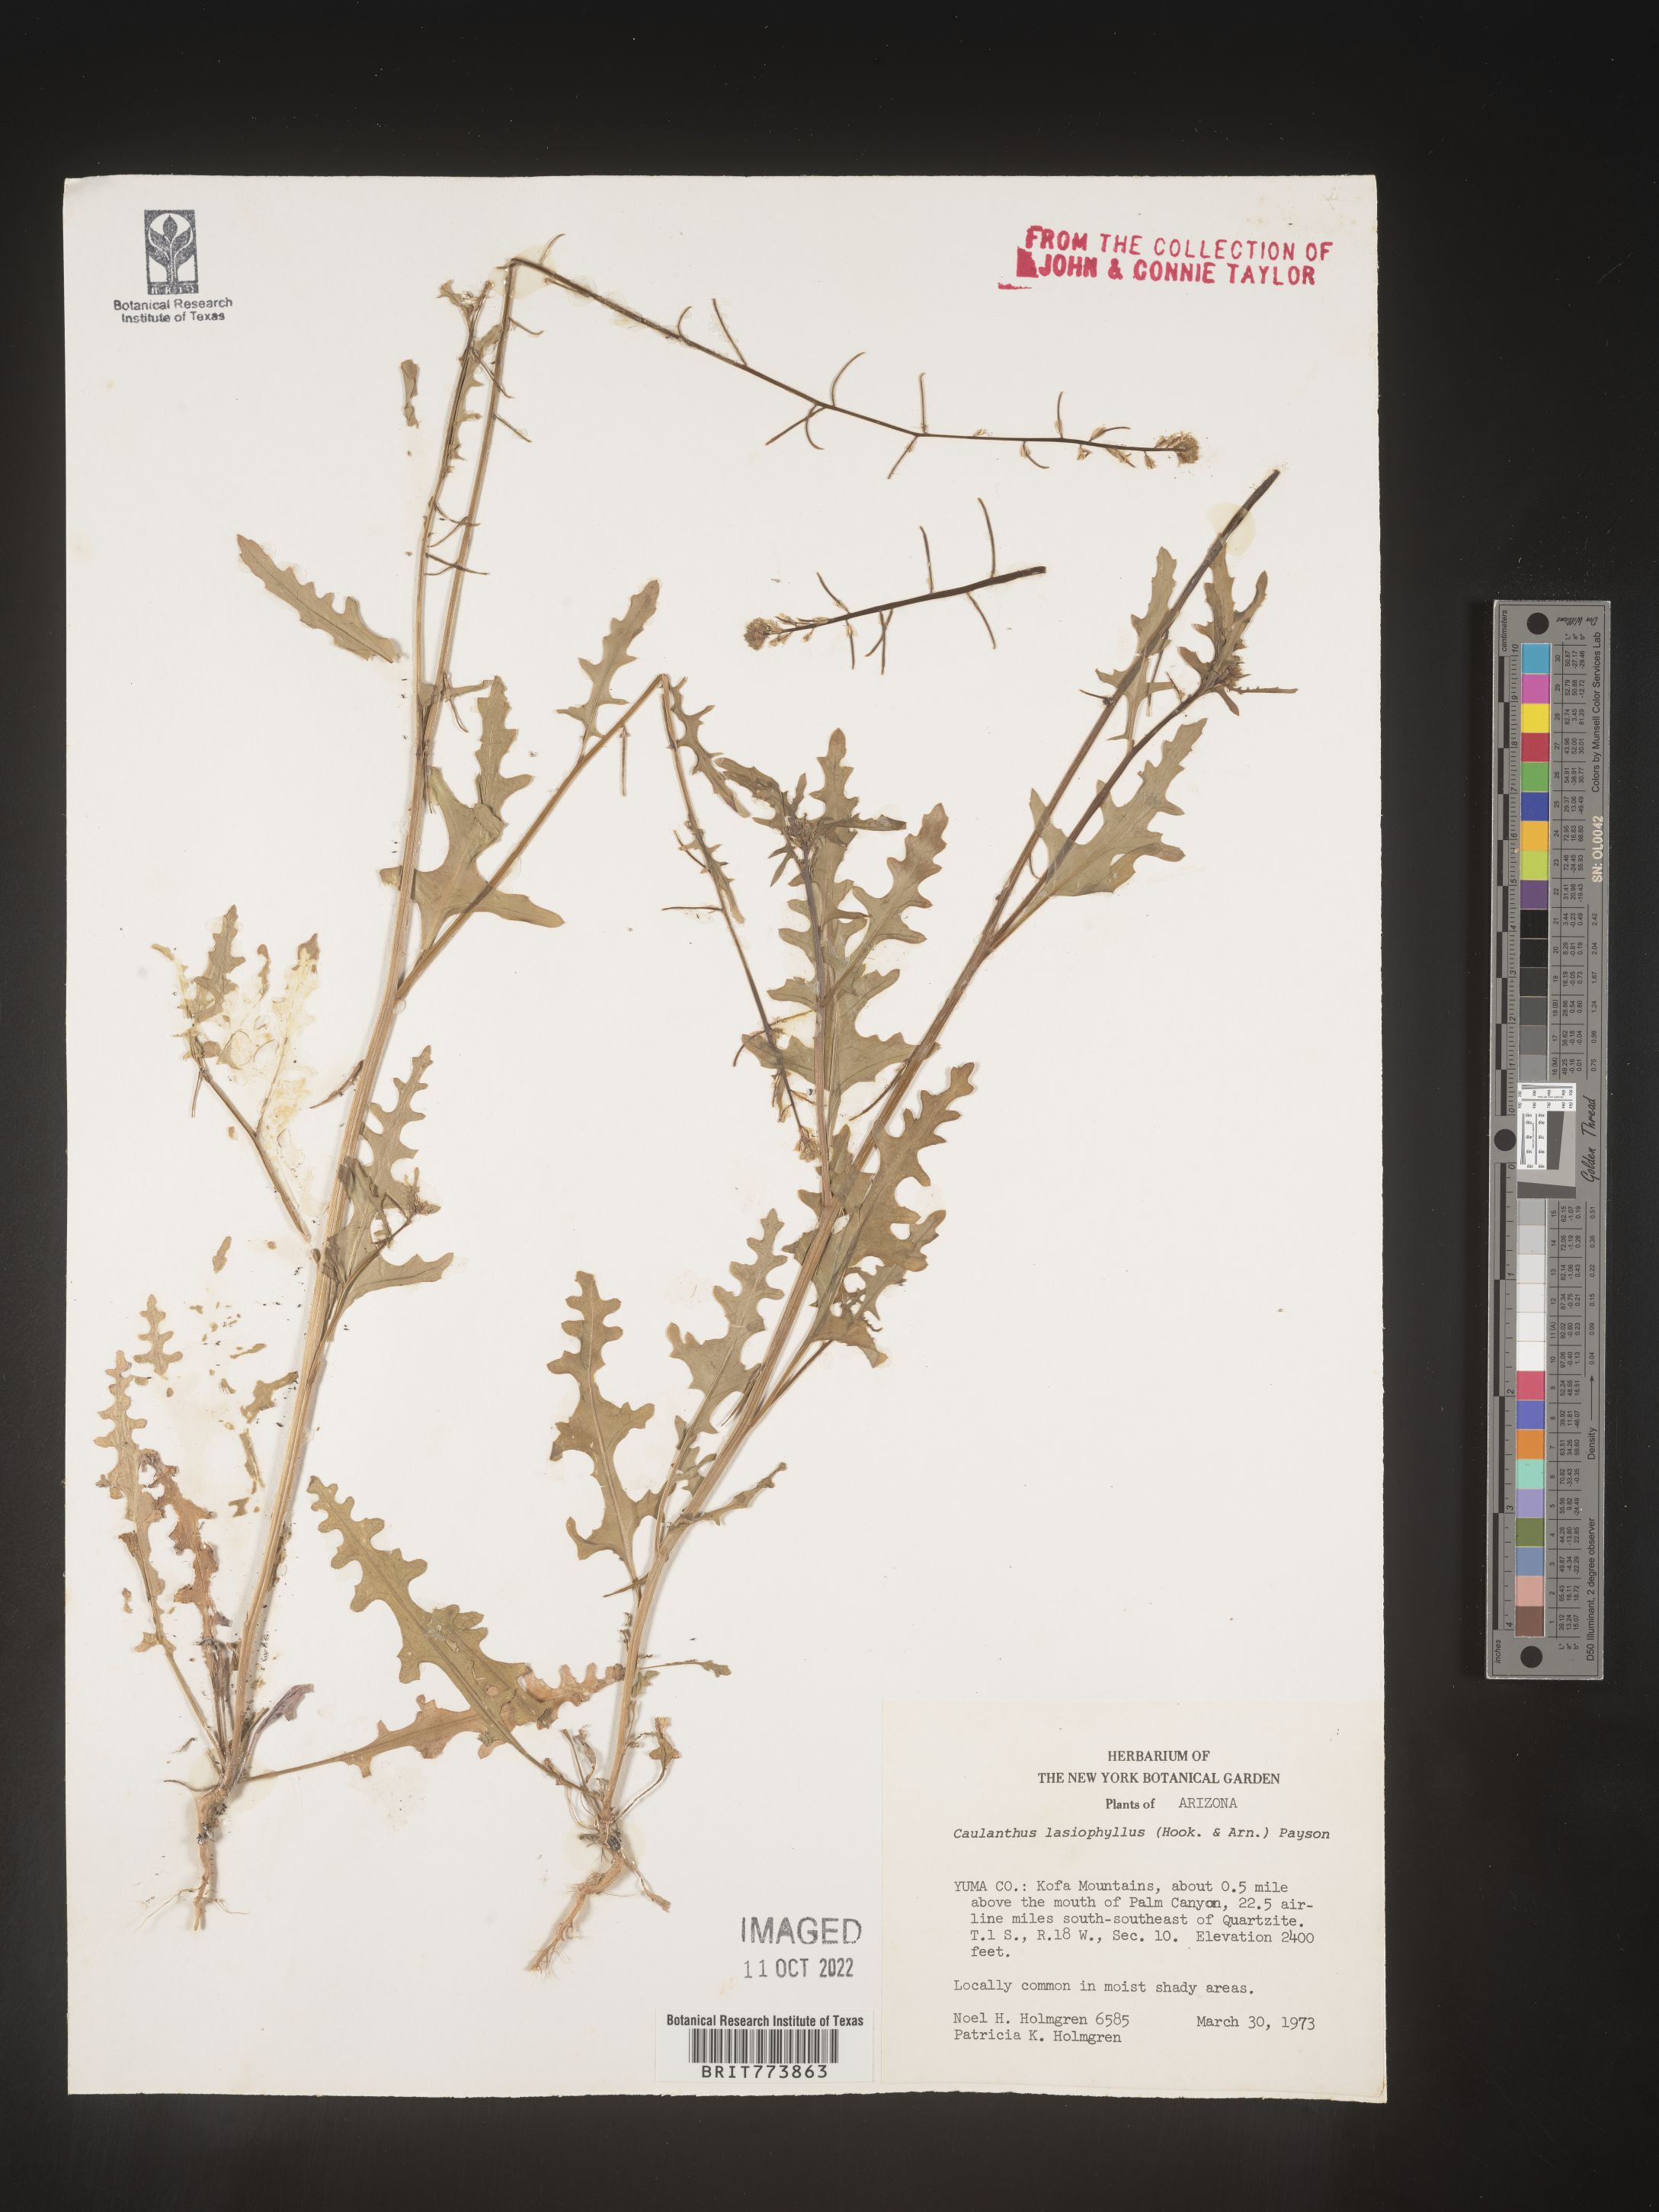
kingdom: Plantae
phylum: Tracheophyta
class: Magnoliopsida
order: Brassicales
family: Brassicaceae
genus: Streptanthus
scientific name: Streptanthus
